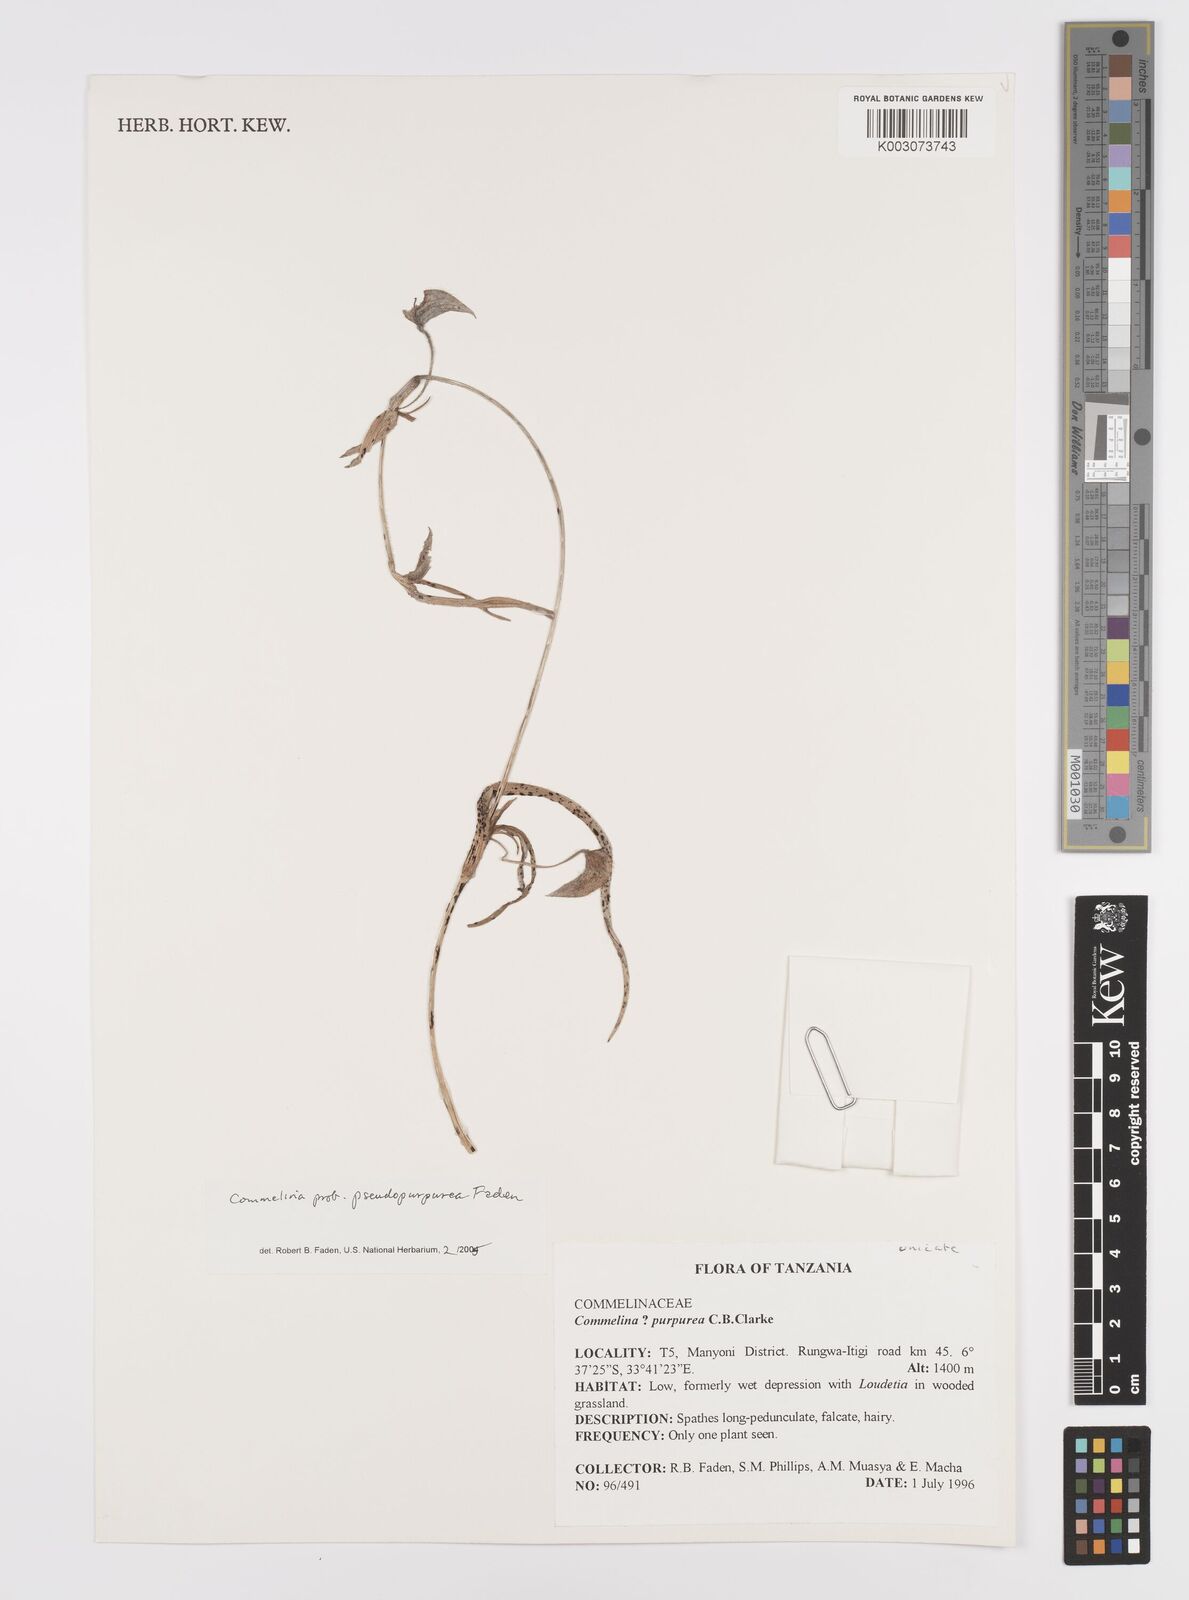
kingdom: Plantae
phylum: Tracheophyta
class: Liliopsida
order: Commelinales
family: Commelinaceae
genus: Commelina
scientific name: Commelina pseudopurpurea
